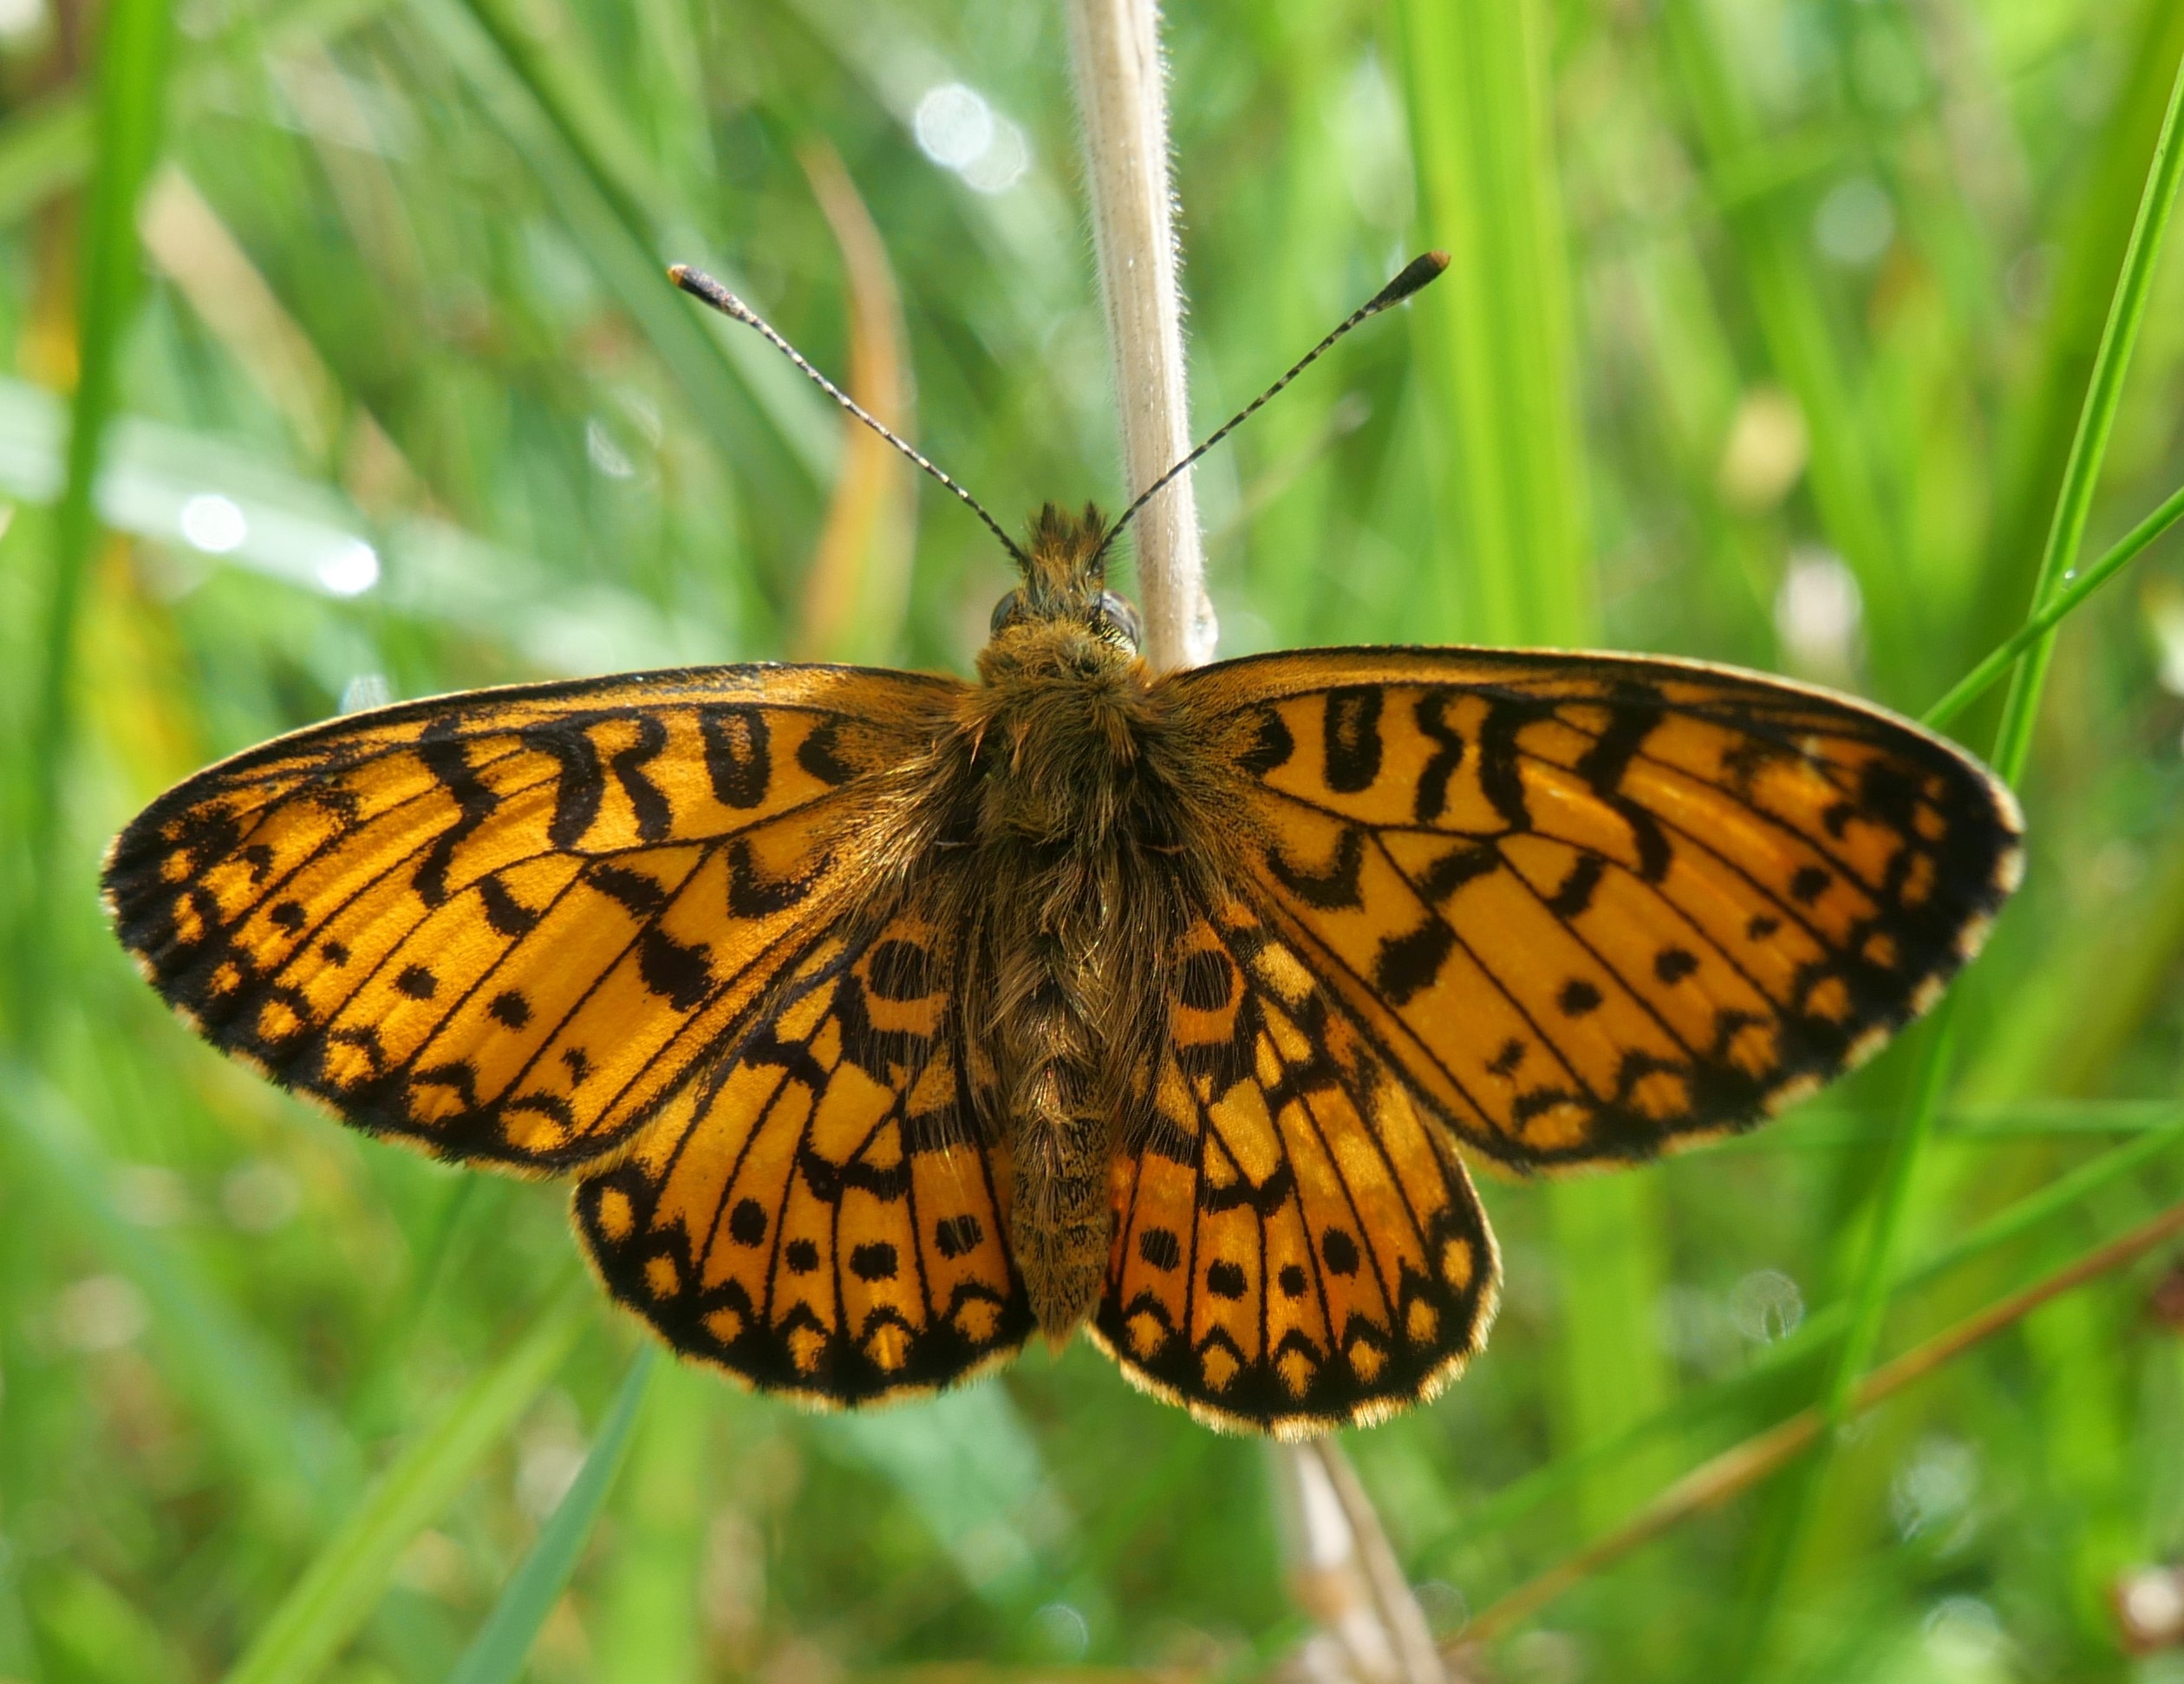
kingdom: Animalia
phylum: Arthropoda
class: Insecta
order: Lepidoptera
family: Nymphalidae
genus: Boloria
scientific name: Boloria selene
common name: Brunlig perlemorsommerfugl
